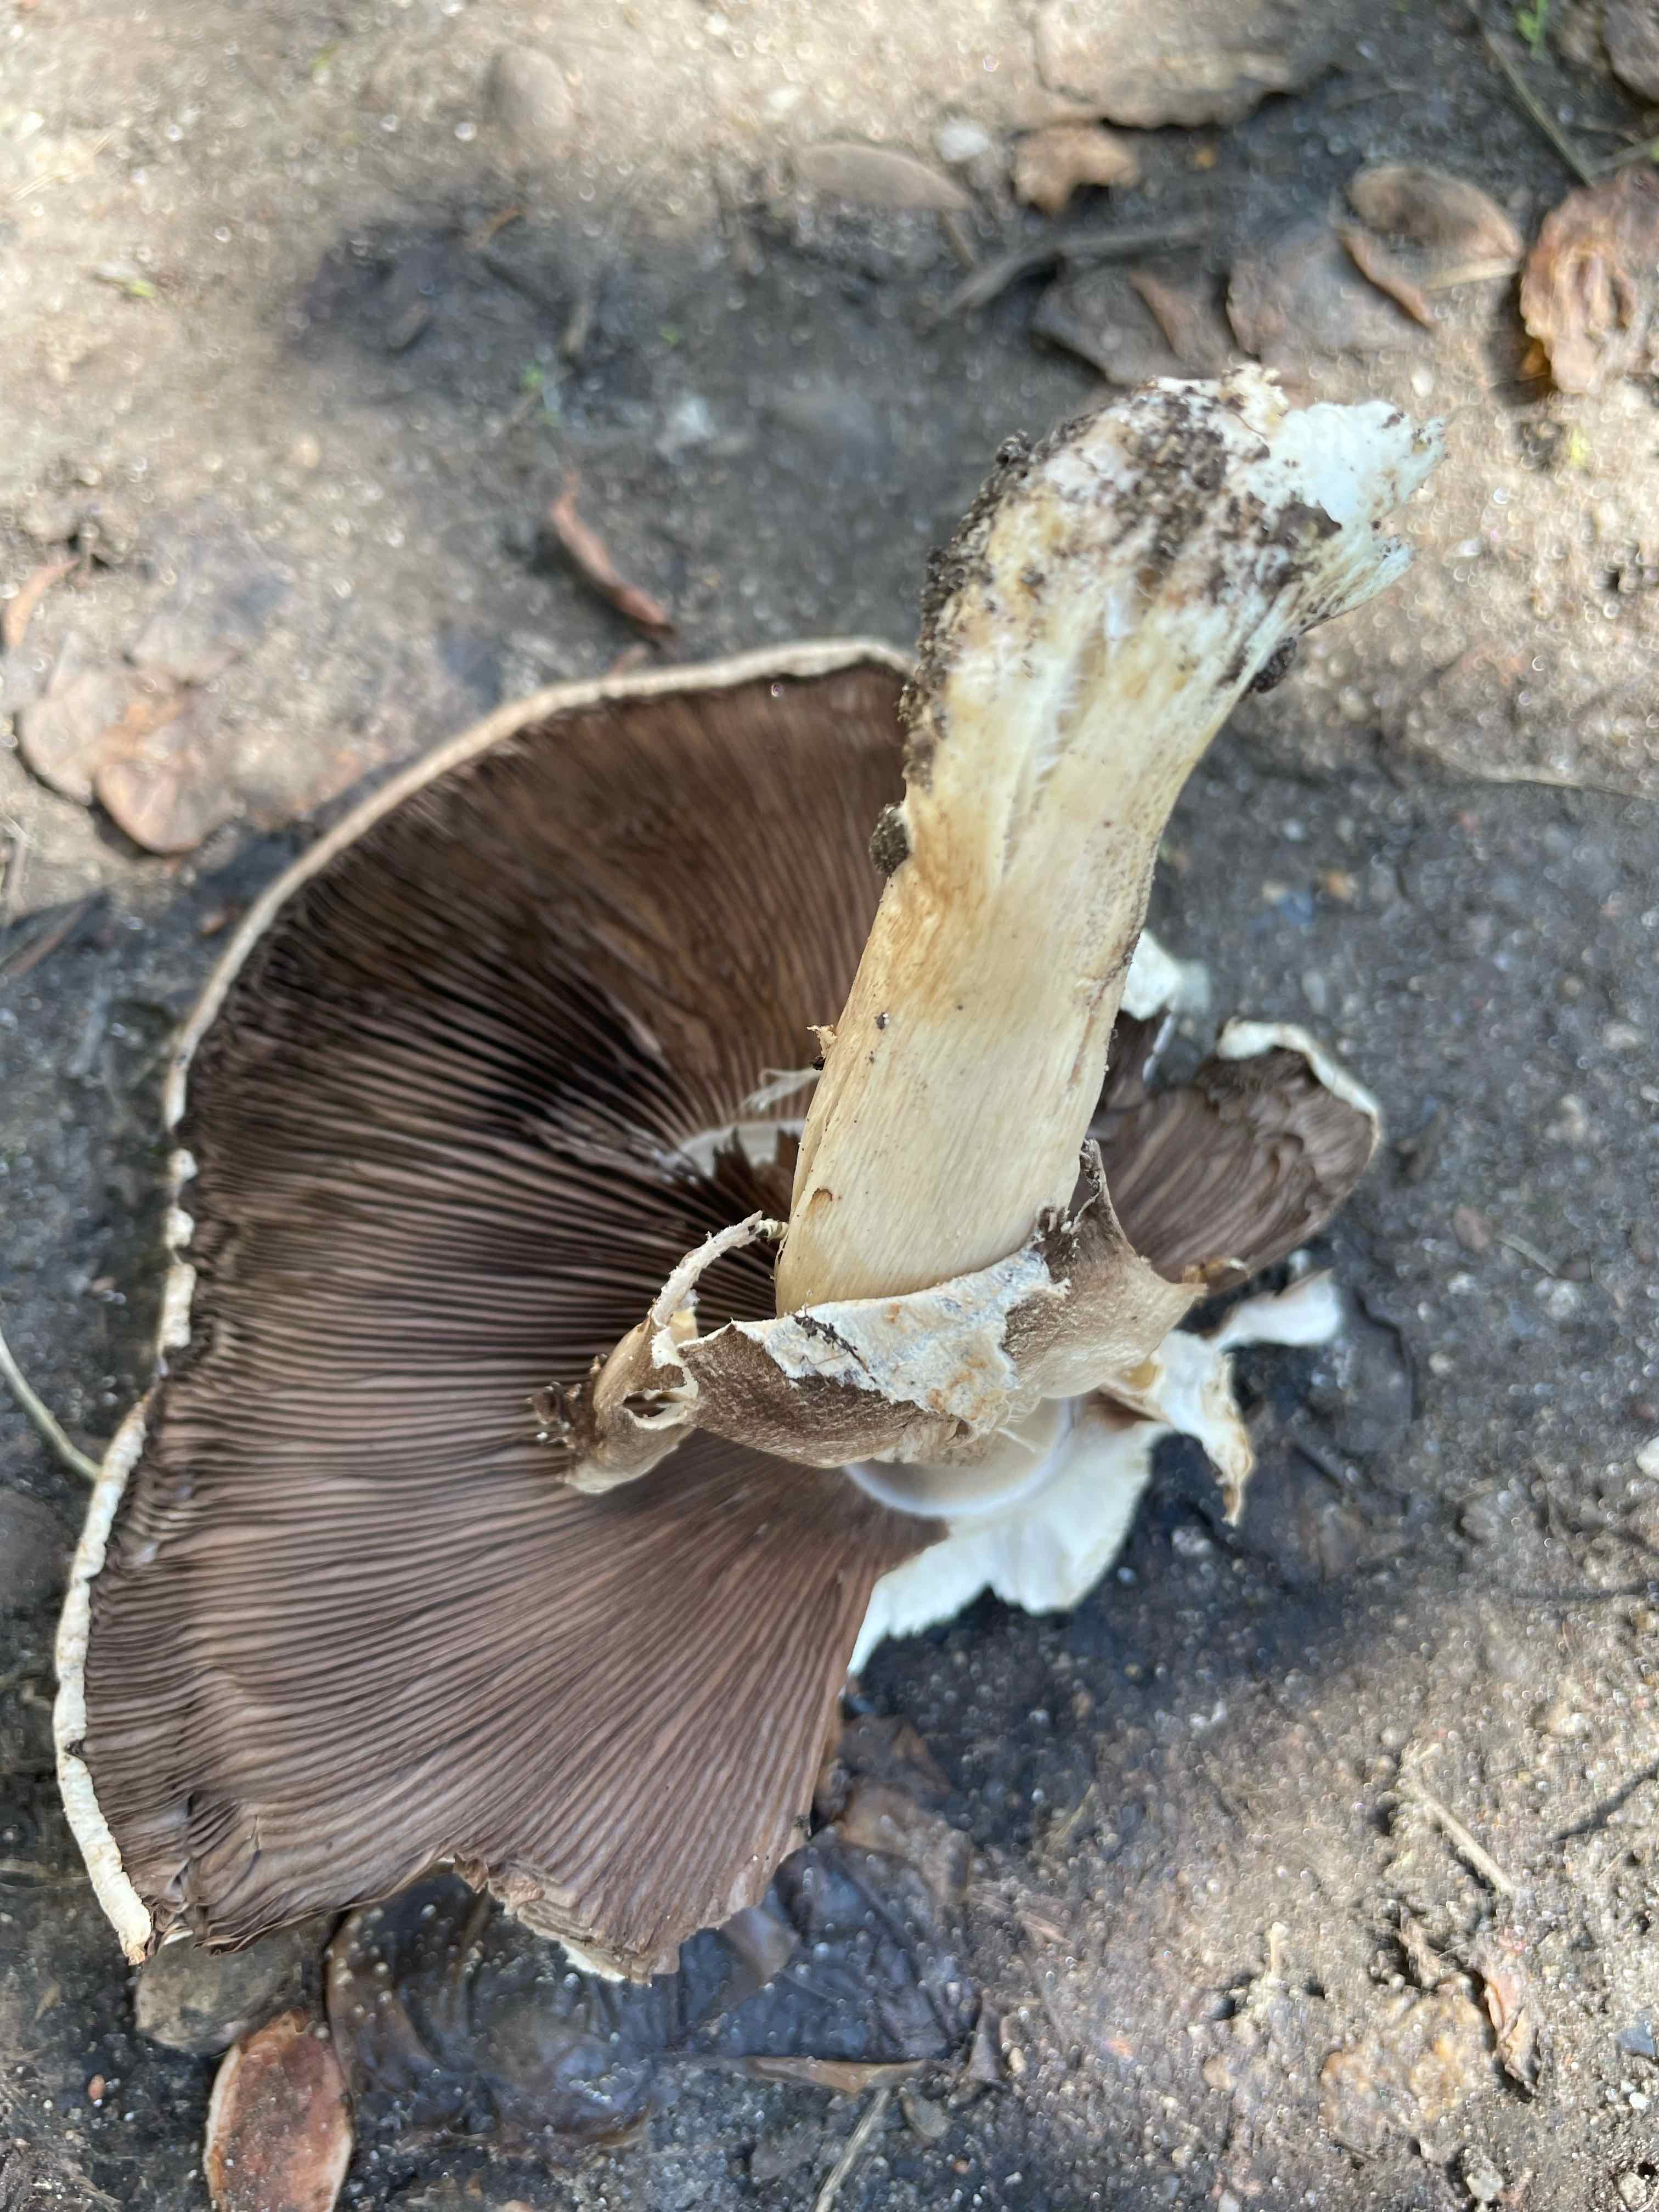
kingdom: Fungi
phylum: Basidiomycota
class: Agaricomycetes
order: Agaricales
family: Agaricaceae
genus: Agaricus
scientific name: Agaricus bitorquis
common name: vej-champignon
